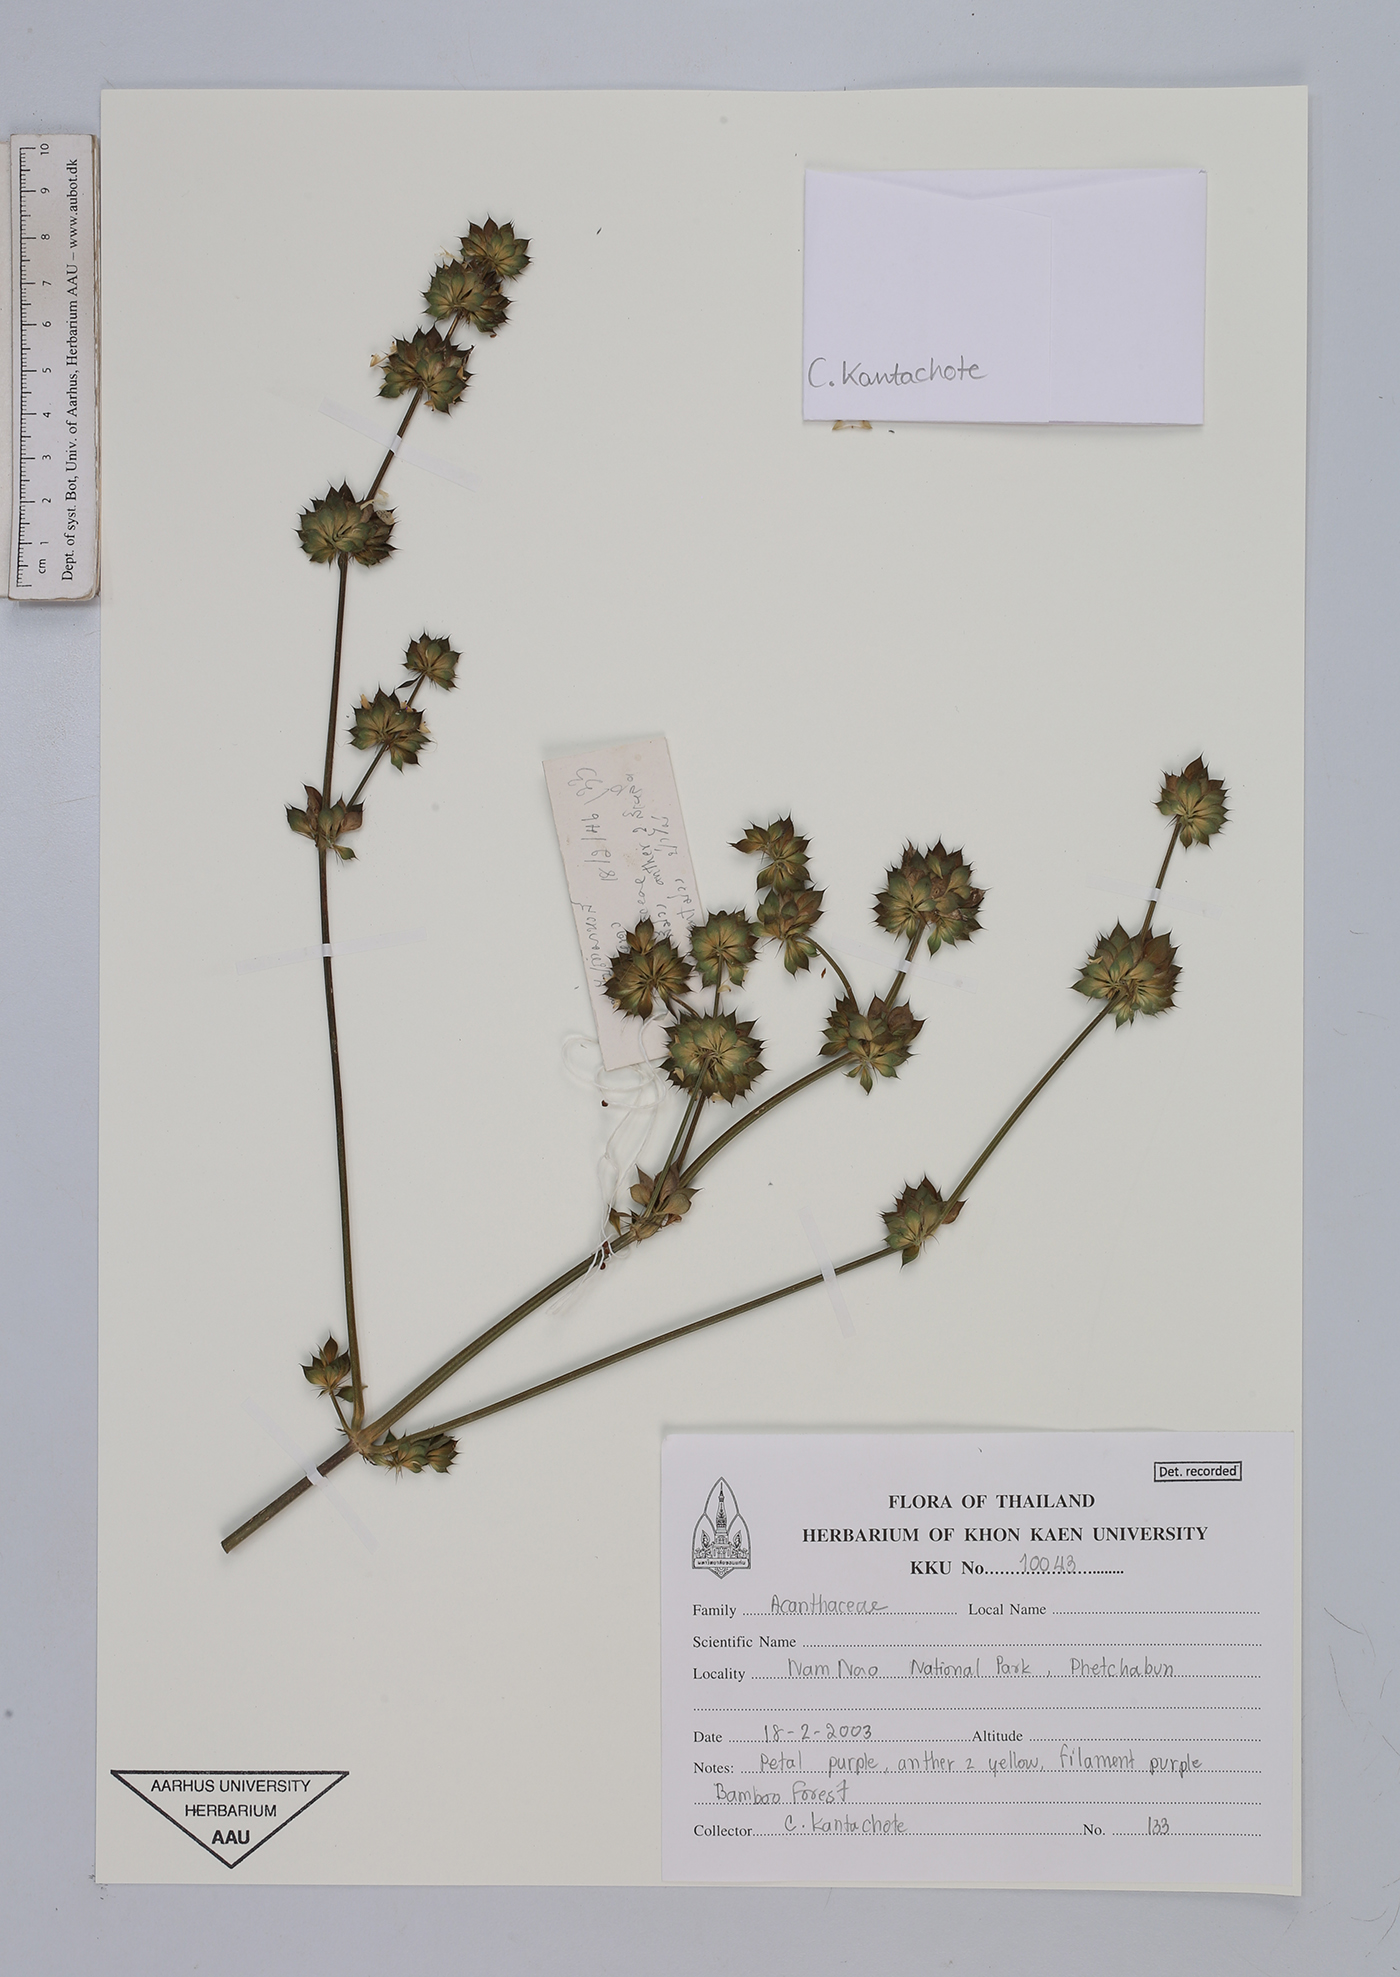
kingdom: Plantae
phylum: Tracheophyta
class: Magnoliopsida
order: Lamiales
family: Acanthaceae
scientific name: Acanthaceae
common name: Acanthaceae
